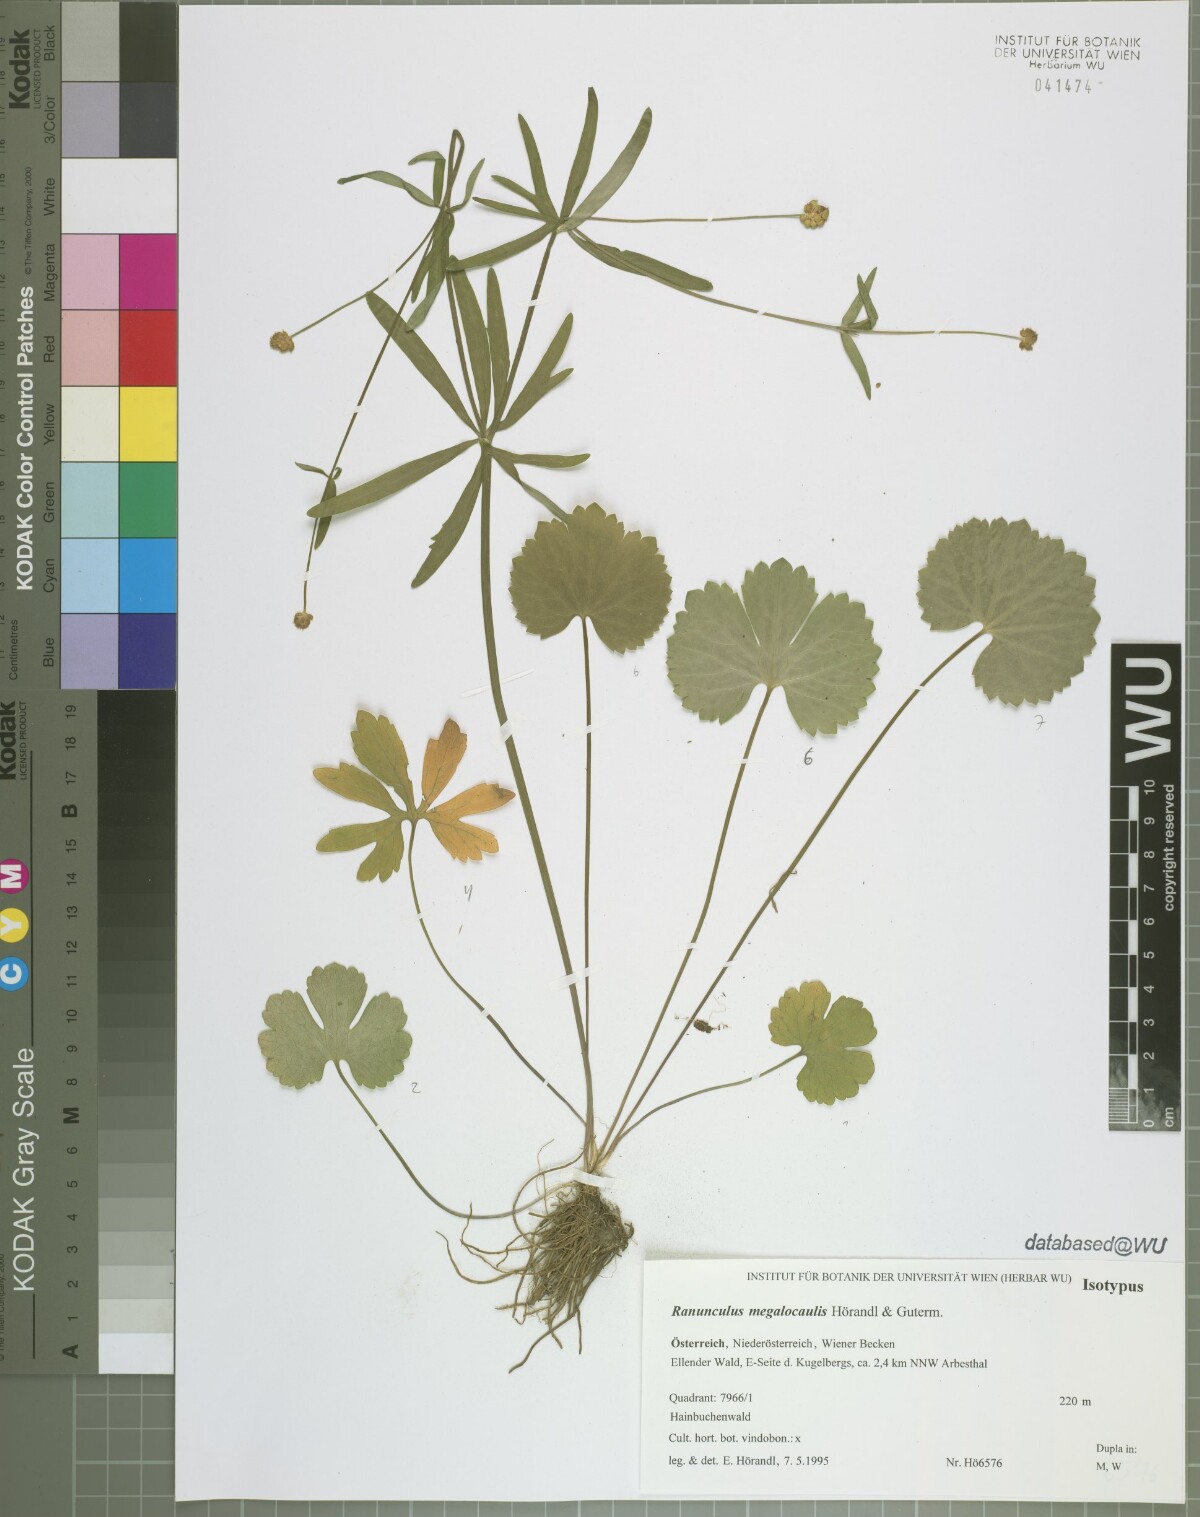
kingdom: Plantae
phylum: Tracheophyta
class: Magnoliopsida
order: Ranunculales
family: Ranunculaceae
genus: Ranunculus
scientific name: Ranunculus megalocaulis
